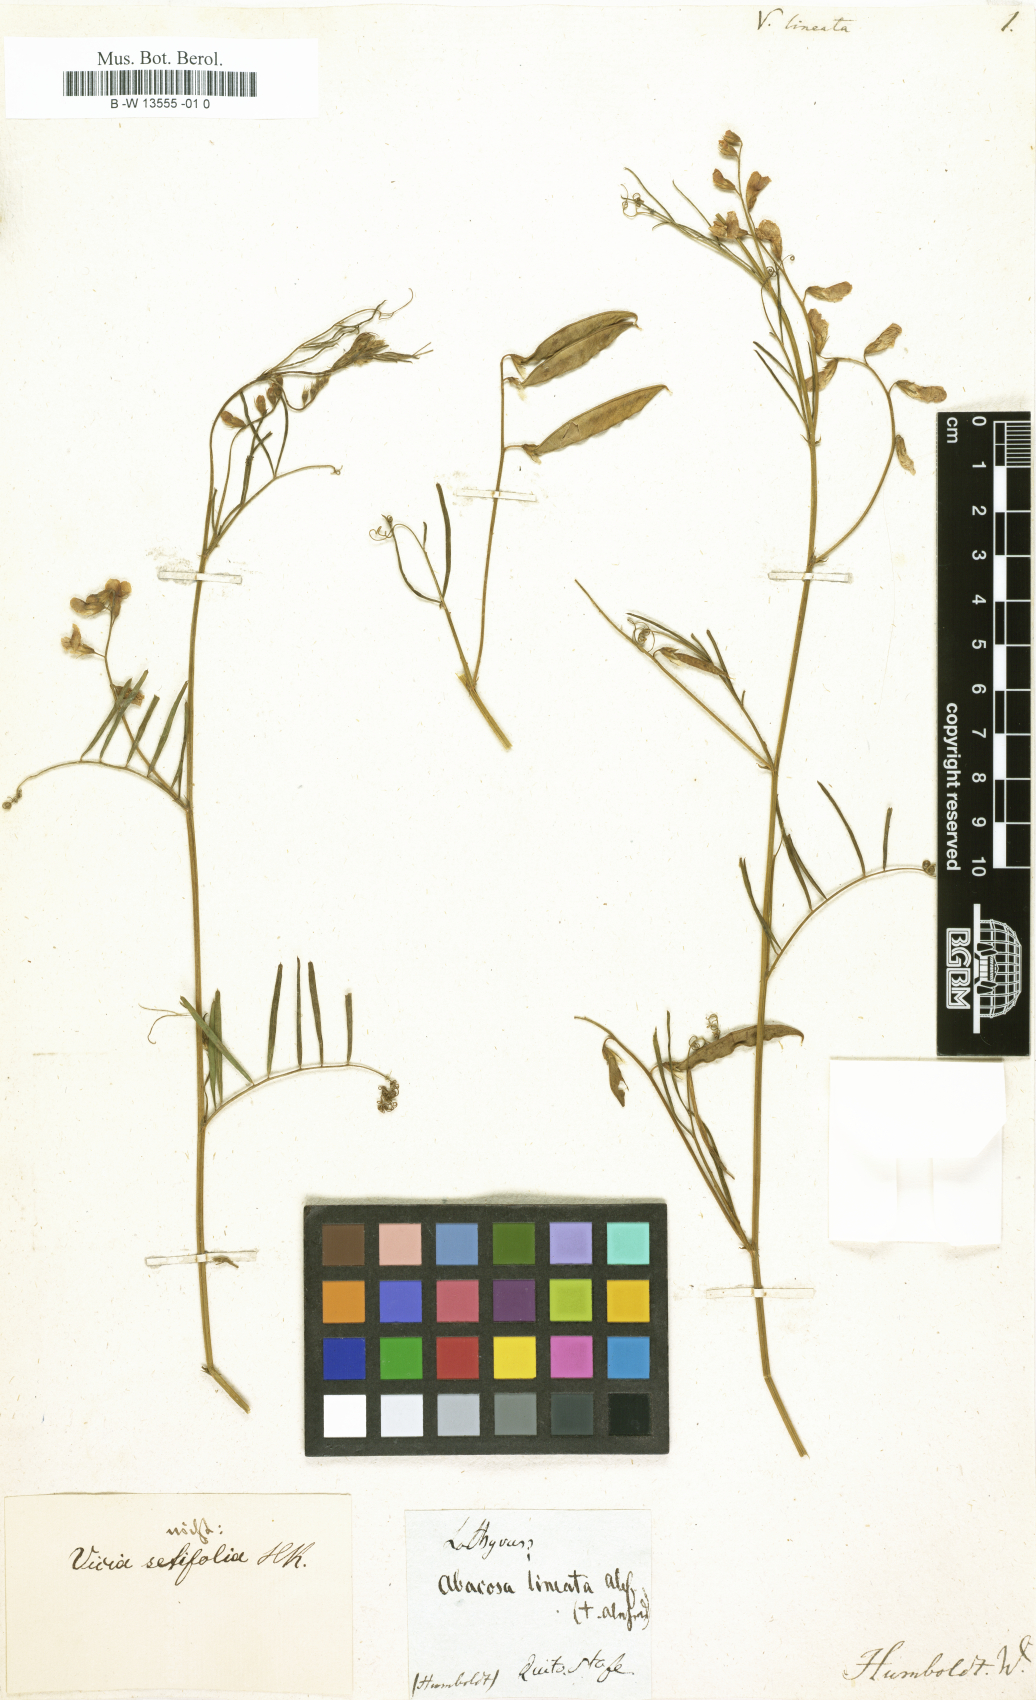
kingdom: Plantae
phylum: Tracheophyta
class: Magnoliopsida
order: Fabales
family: Fabaceae
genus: Vicia
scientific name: Vicia lutea
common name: Smooth yellow vetch
